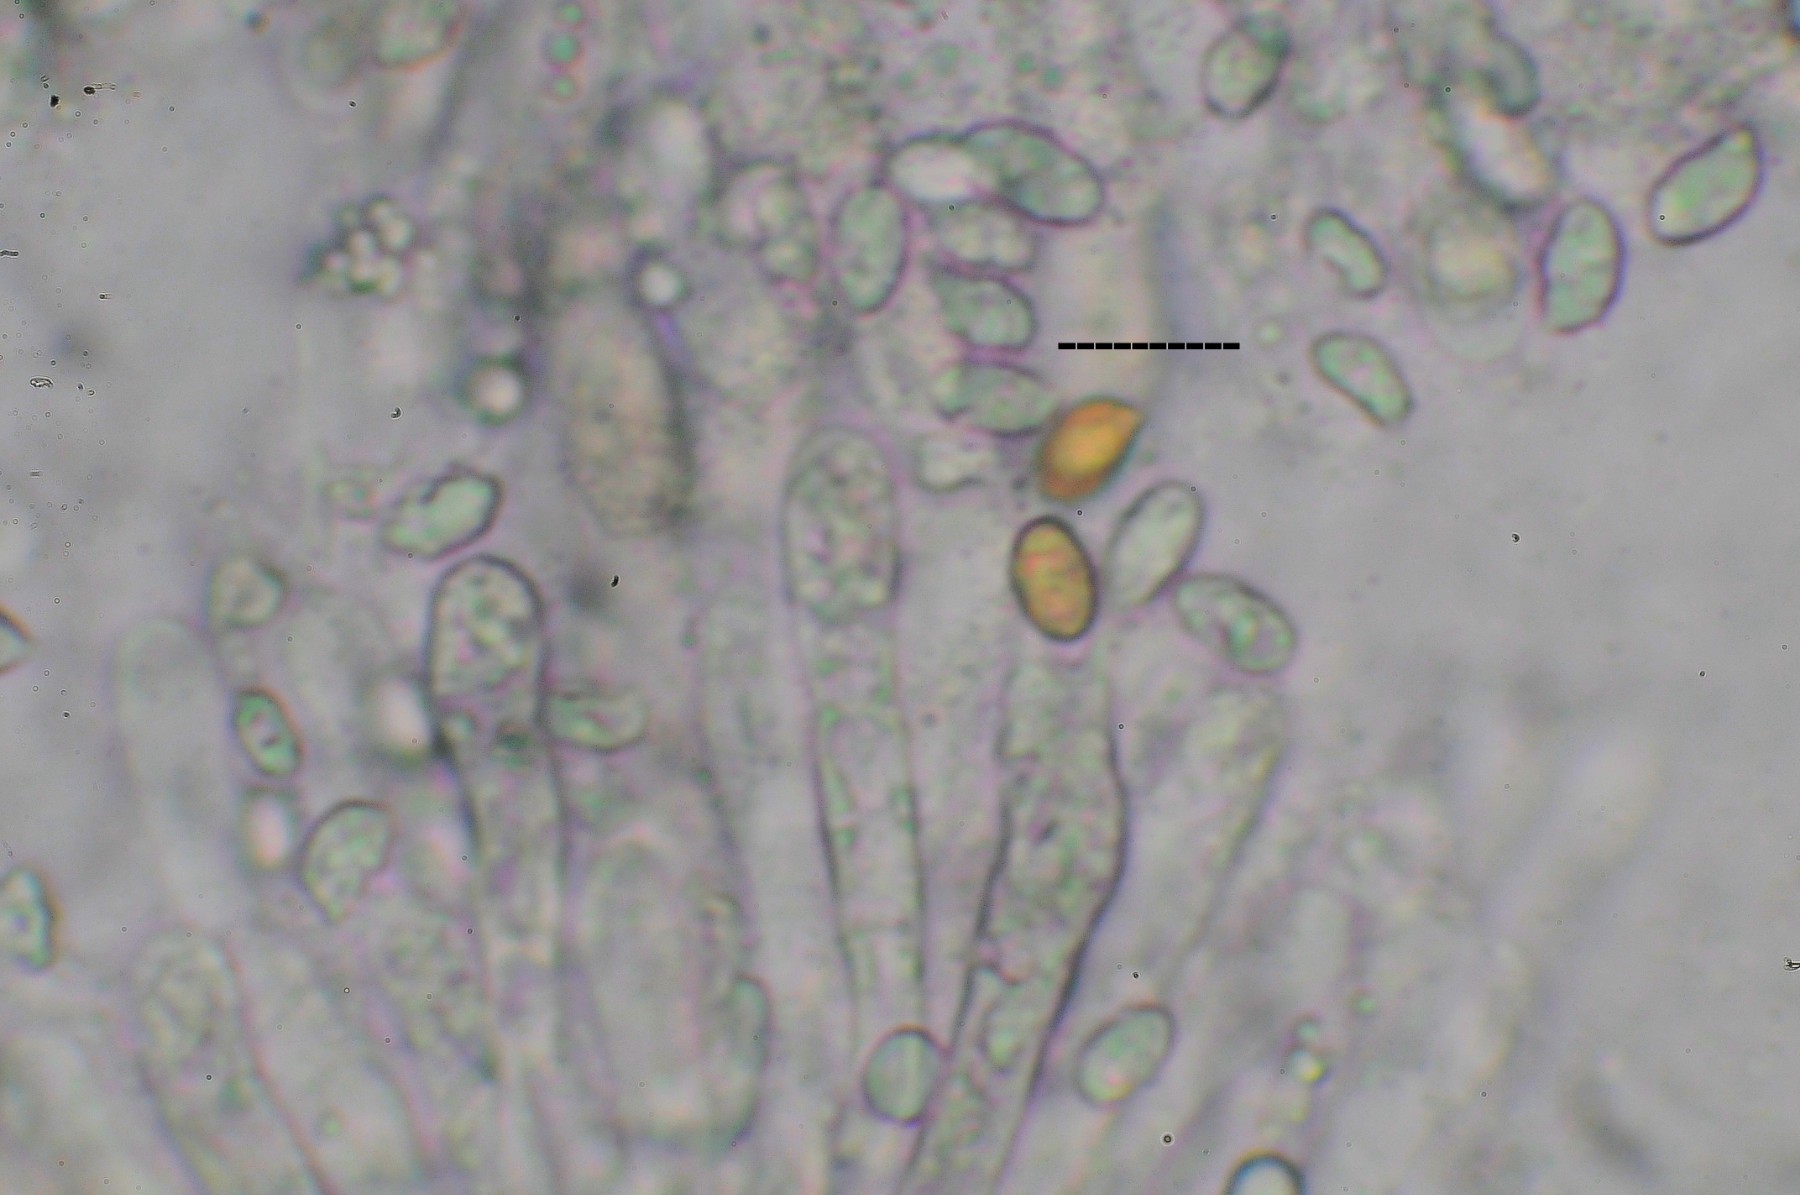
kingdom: Fungi
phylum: Basidiomycota
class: Agaricomycetes
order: Agaricales
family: Hygrophoraceae
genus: Hygrophorus
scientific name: Hygrophorus suaveolens
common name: parfumeret sneglehat
